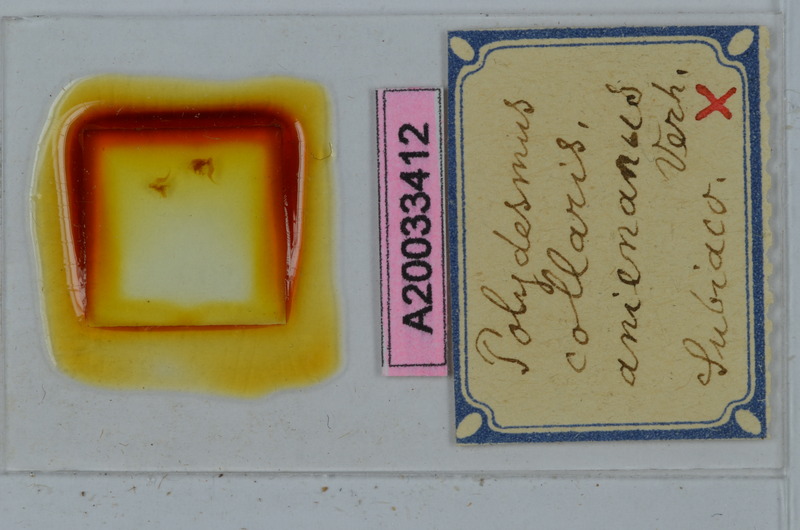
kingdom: Animalia
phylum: Arthropoda
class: Diplopoda
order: Polydesmida
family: Polydesmidae
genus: Polydesmus
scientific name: Polydesmus collaris
